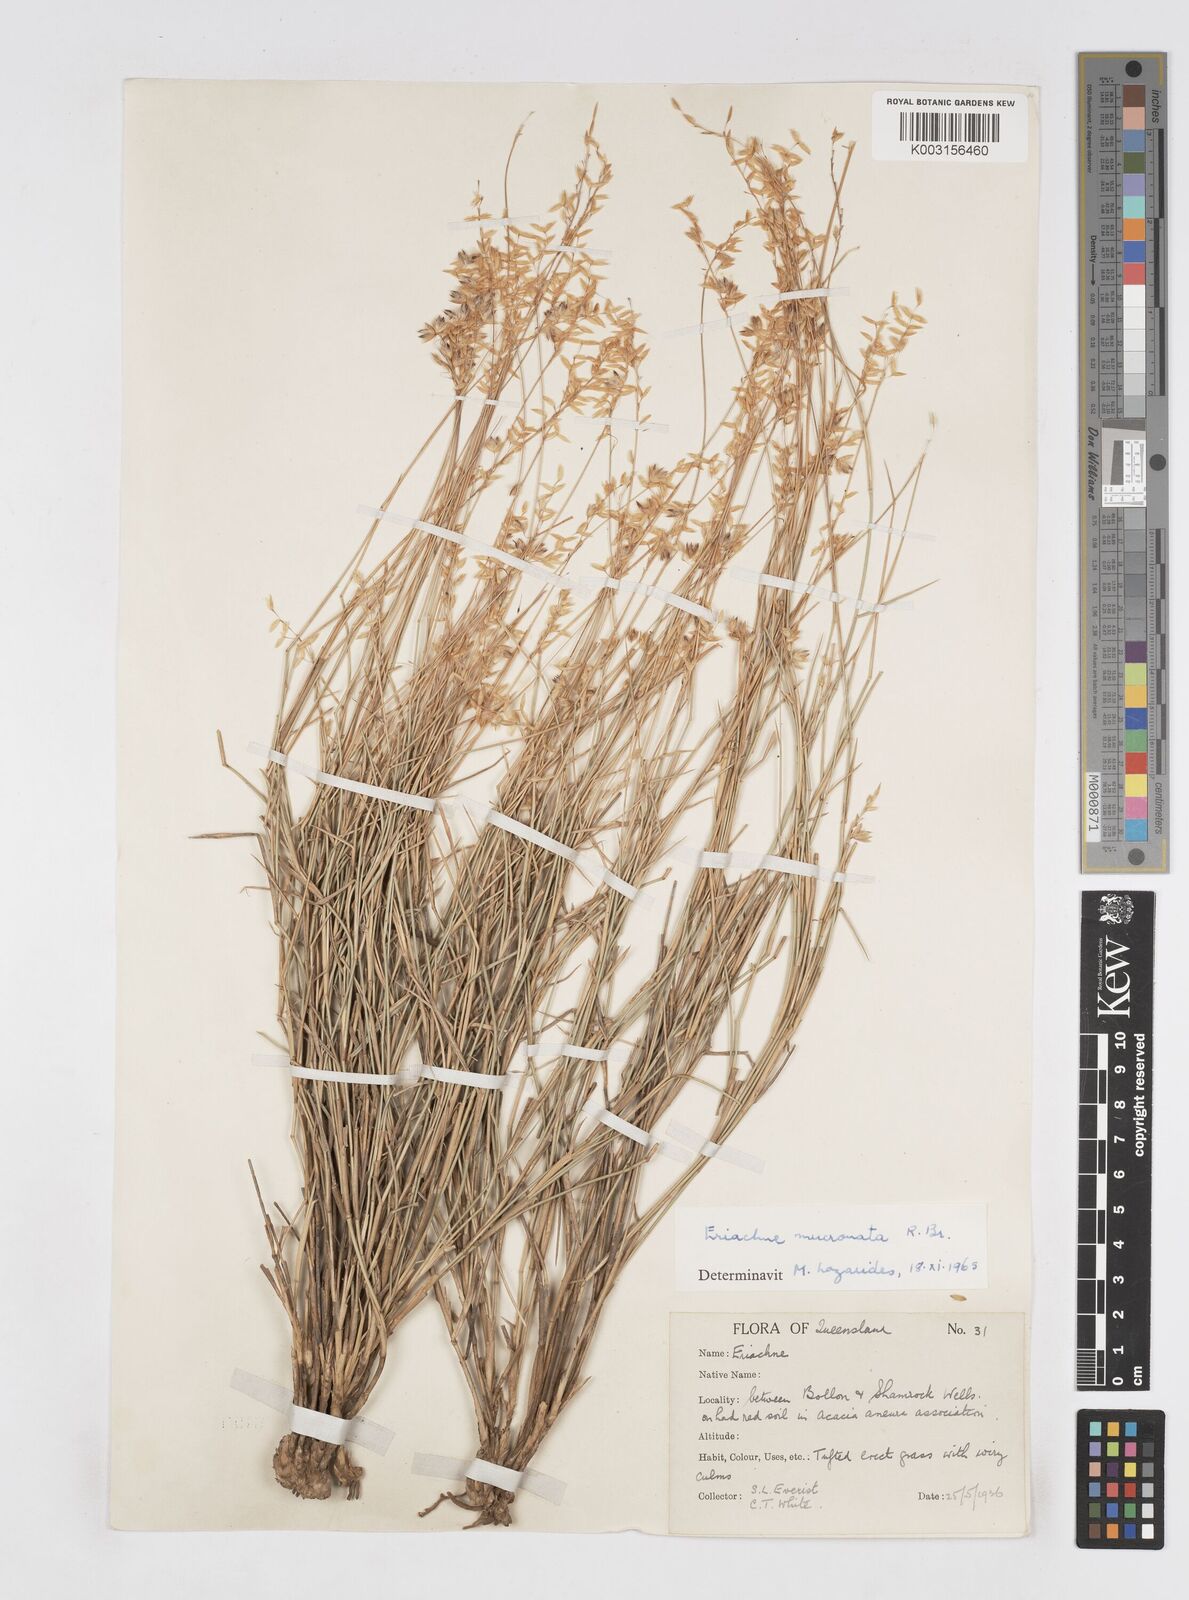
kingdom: Plantae
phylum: Tracheophyta
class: Liliopsida
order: Poales
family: Poaceae
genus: Eriachne
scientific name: Eriachne mucronata
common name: Mountain wanderrie grass
